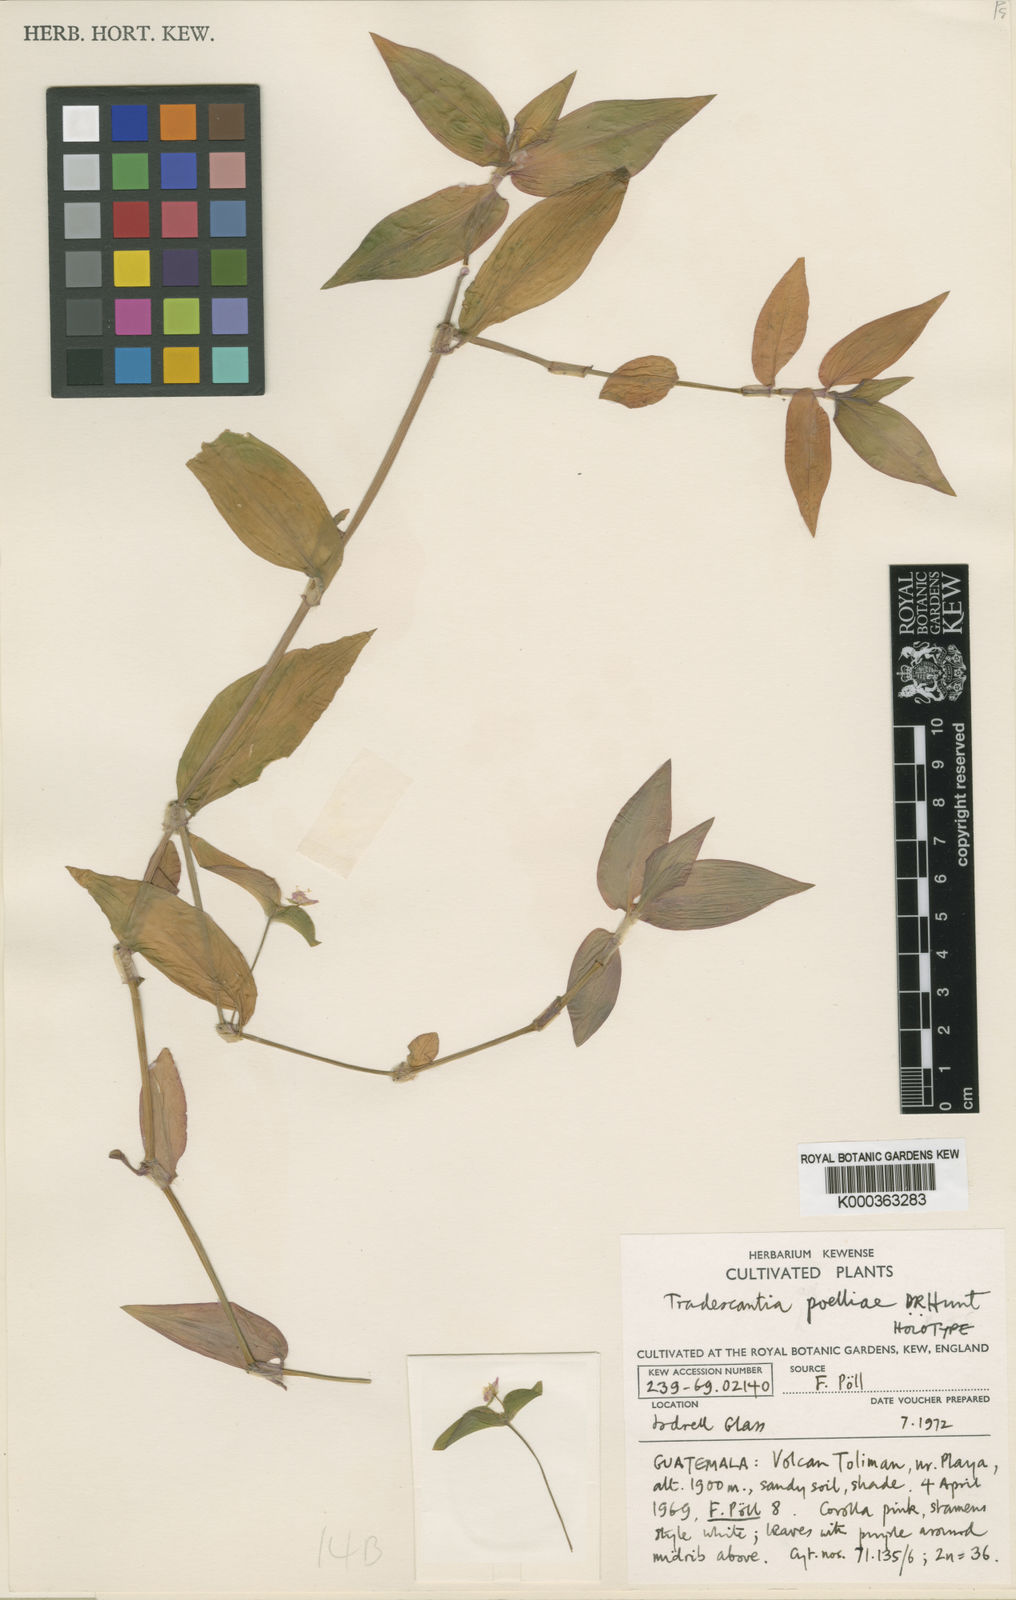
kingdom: Plantae
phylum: Tracheophyta
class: Liliopsida
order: Commelinales
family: Commelinaceae
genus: Tradescantia
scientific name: Tradescantia poelliae
